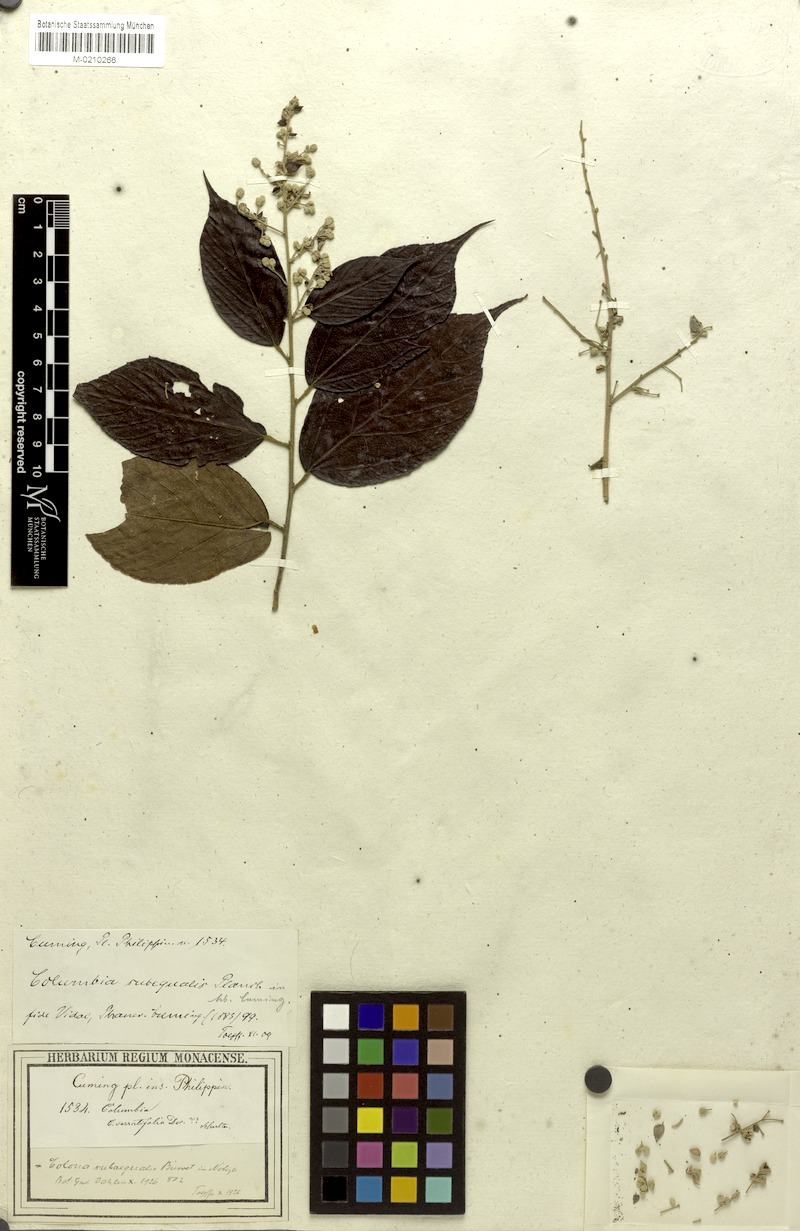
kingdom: Plantae
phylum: Tracheophyta
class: Magnoliopsida
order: Malvales
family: Malvaceae
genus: Colona
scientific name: Colona subaequalis
